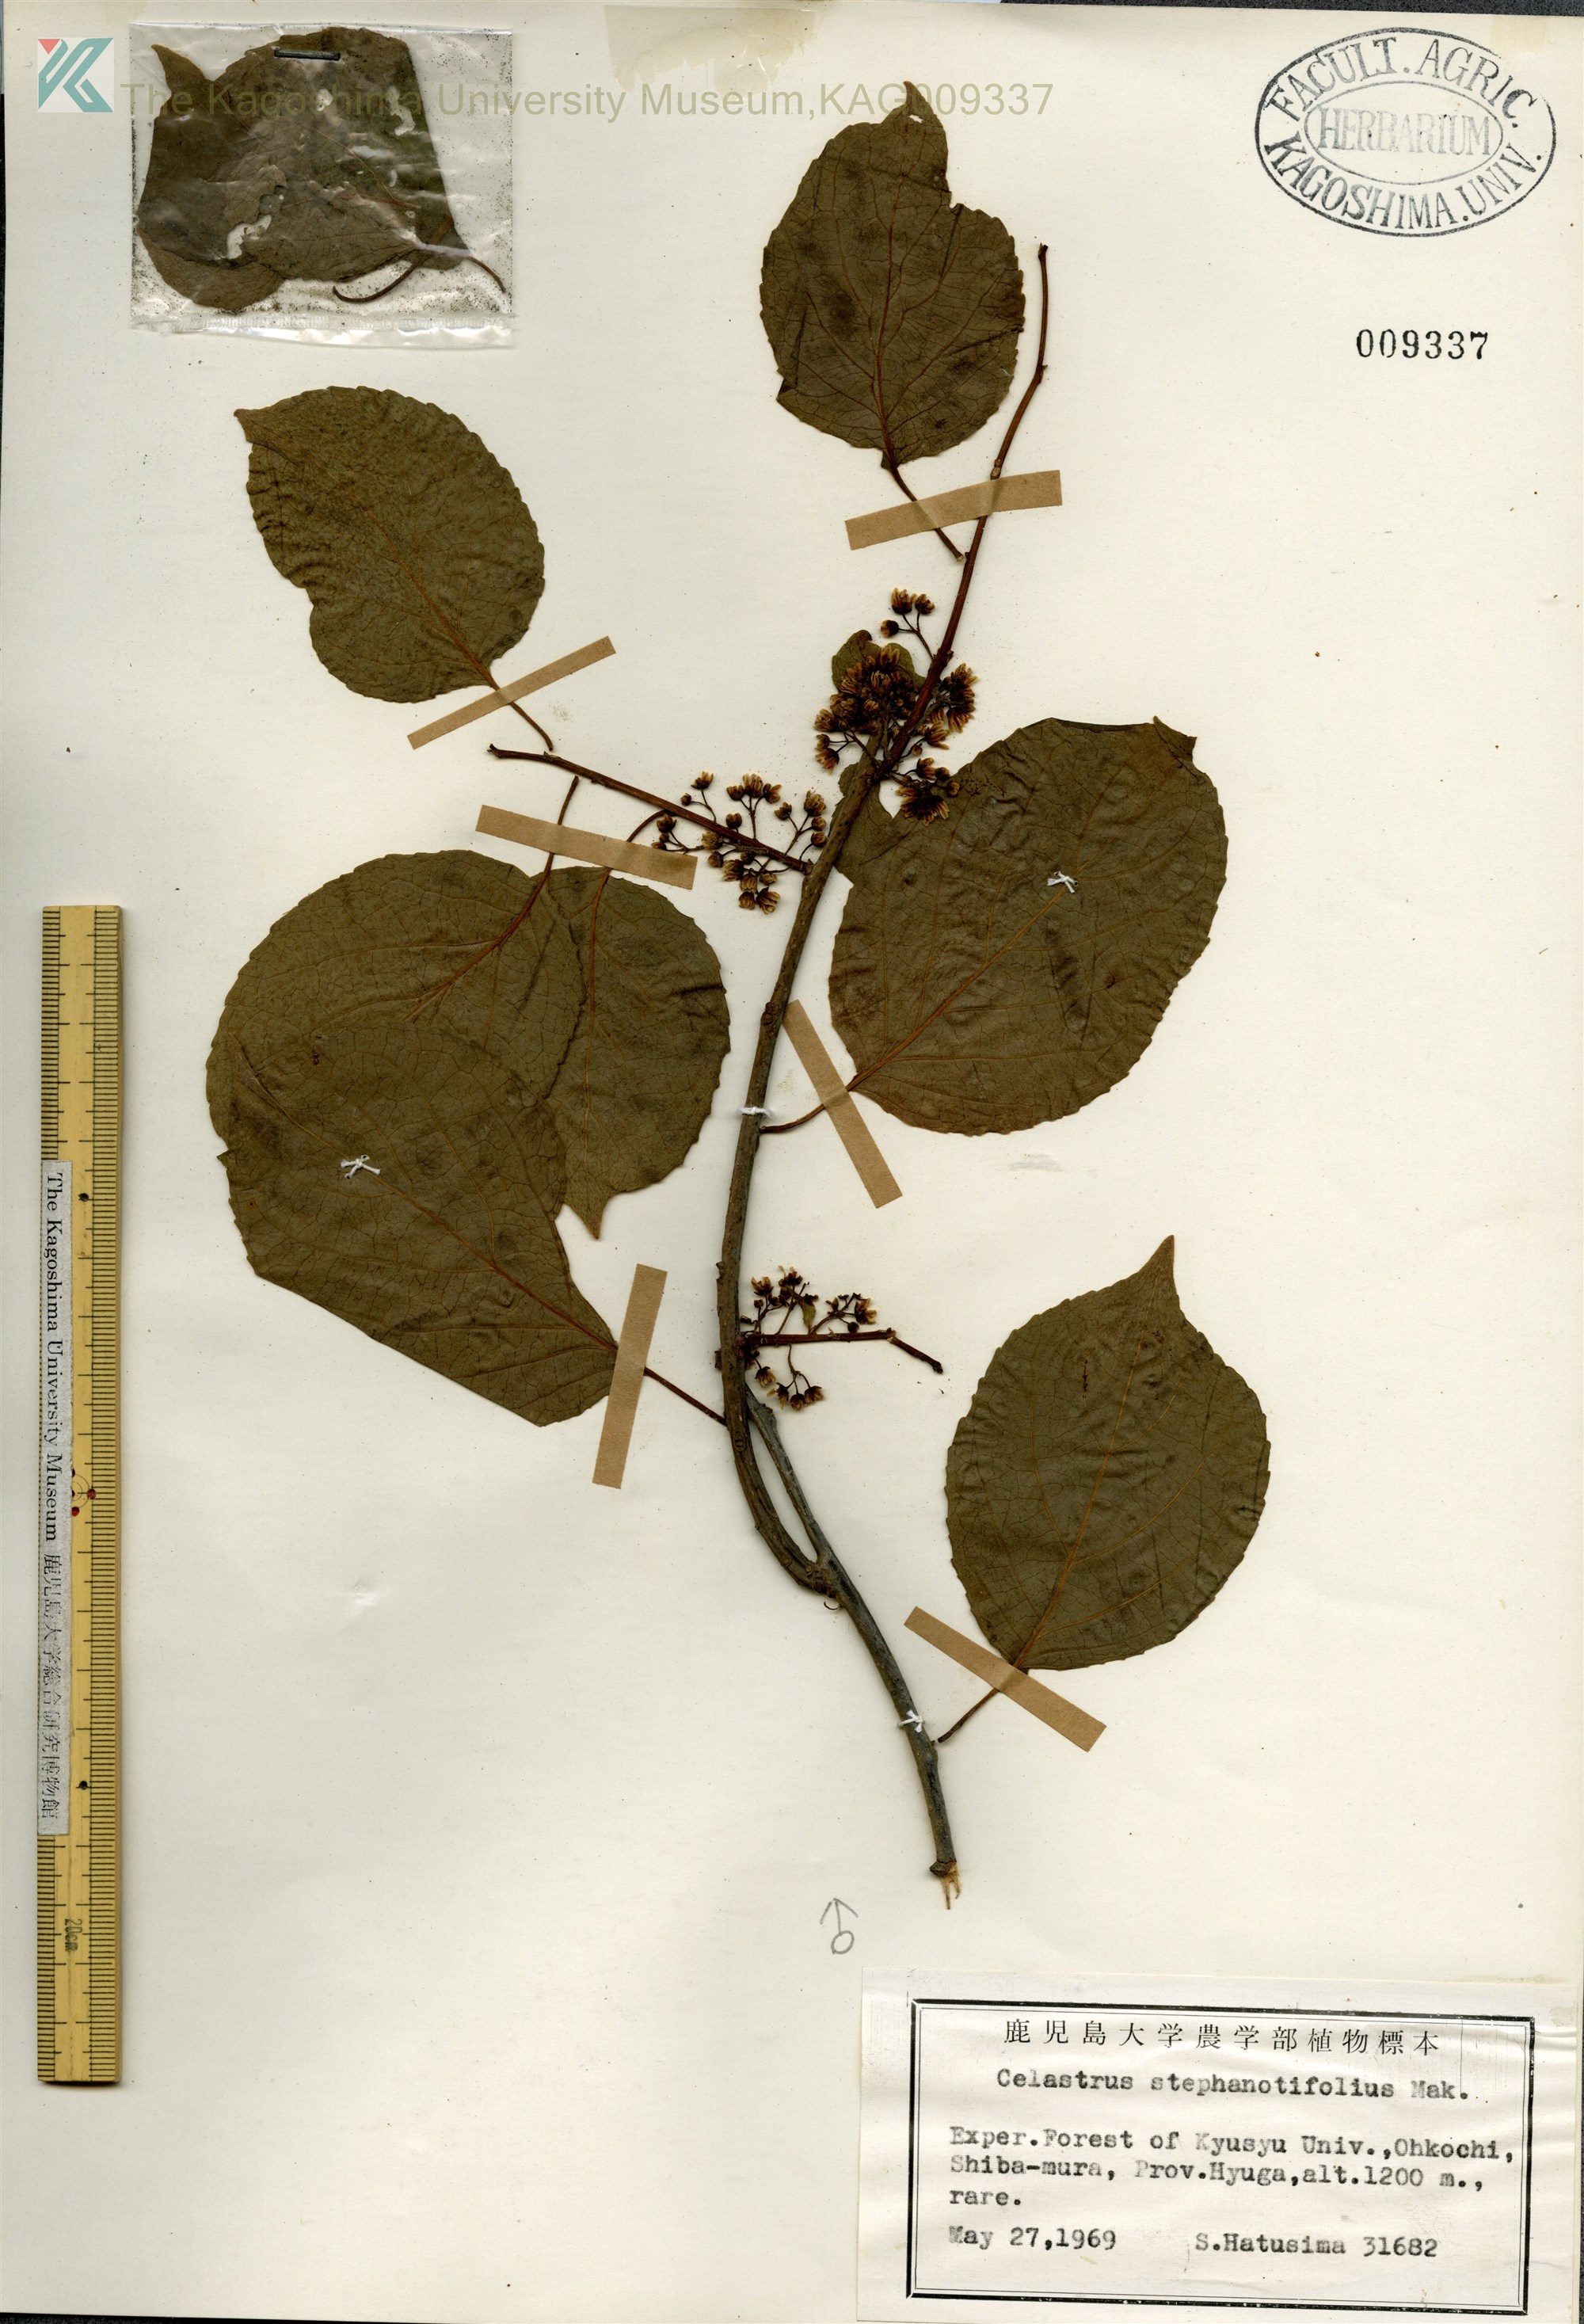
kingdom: Plantae
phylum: Tracheophyta
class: Magnoliopsida
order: Celastrales
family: Celastraceae
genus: Celastrus
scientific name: Celastrus stephanotifolius
